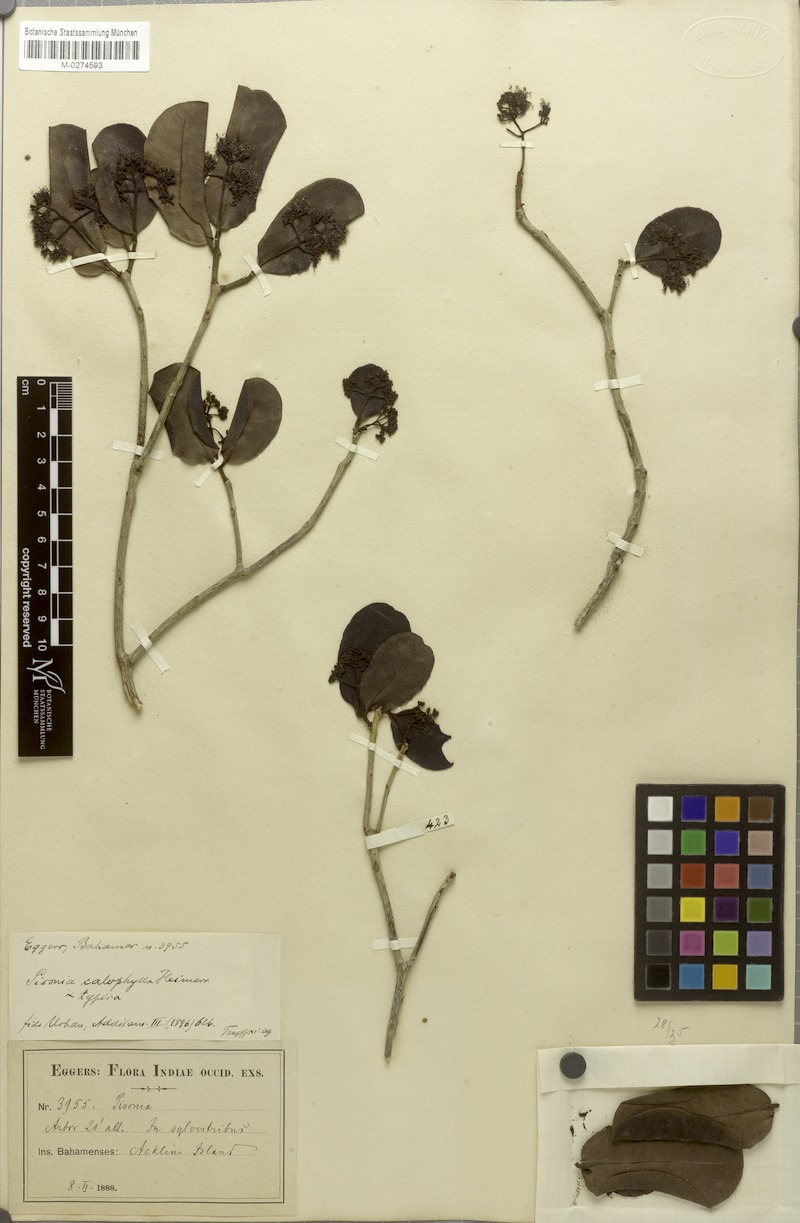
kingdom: Plantae
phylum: Tracheophyta
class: Magnoliopsida
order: Caryophyllales
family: Nyctaginaceae
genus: Guapira
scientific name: Guapira obtusata
